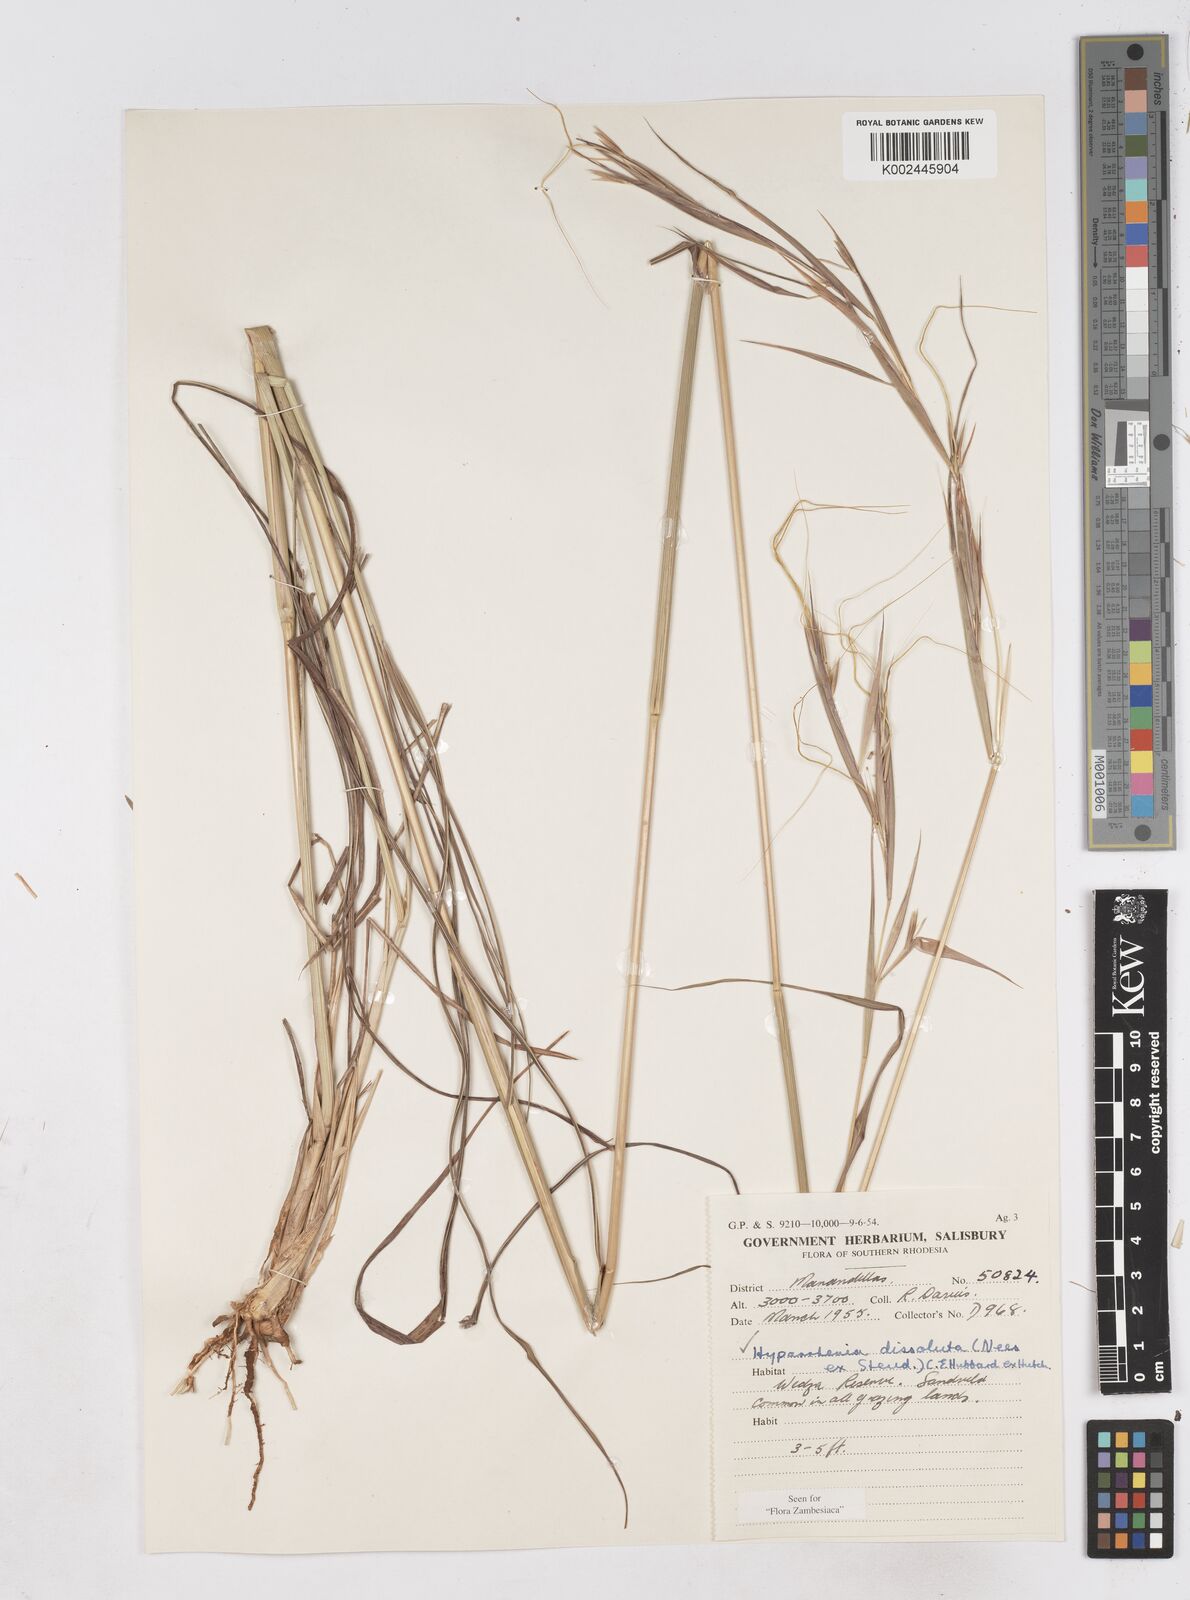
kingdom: Plantae
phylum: Tracheophyta
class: Liliopsida
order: Poales
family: Poaceae
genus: Hyperthelia
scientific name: Hyperthelia dissoluta
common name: Yellow thatching grass
